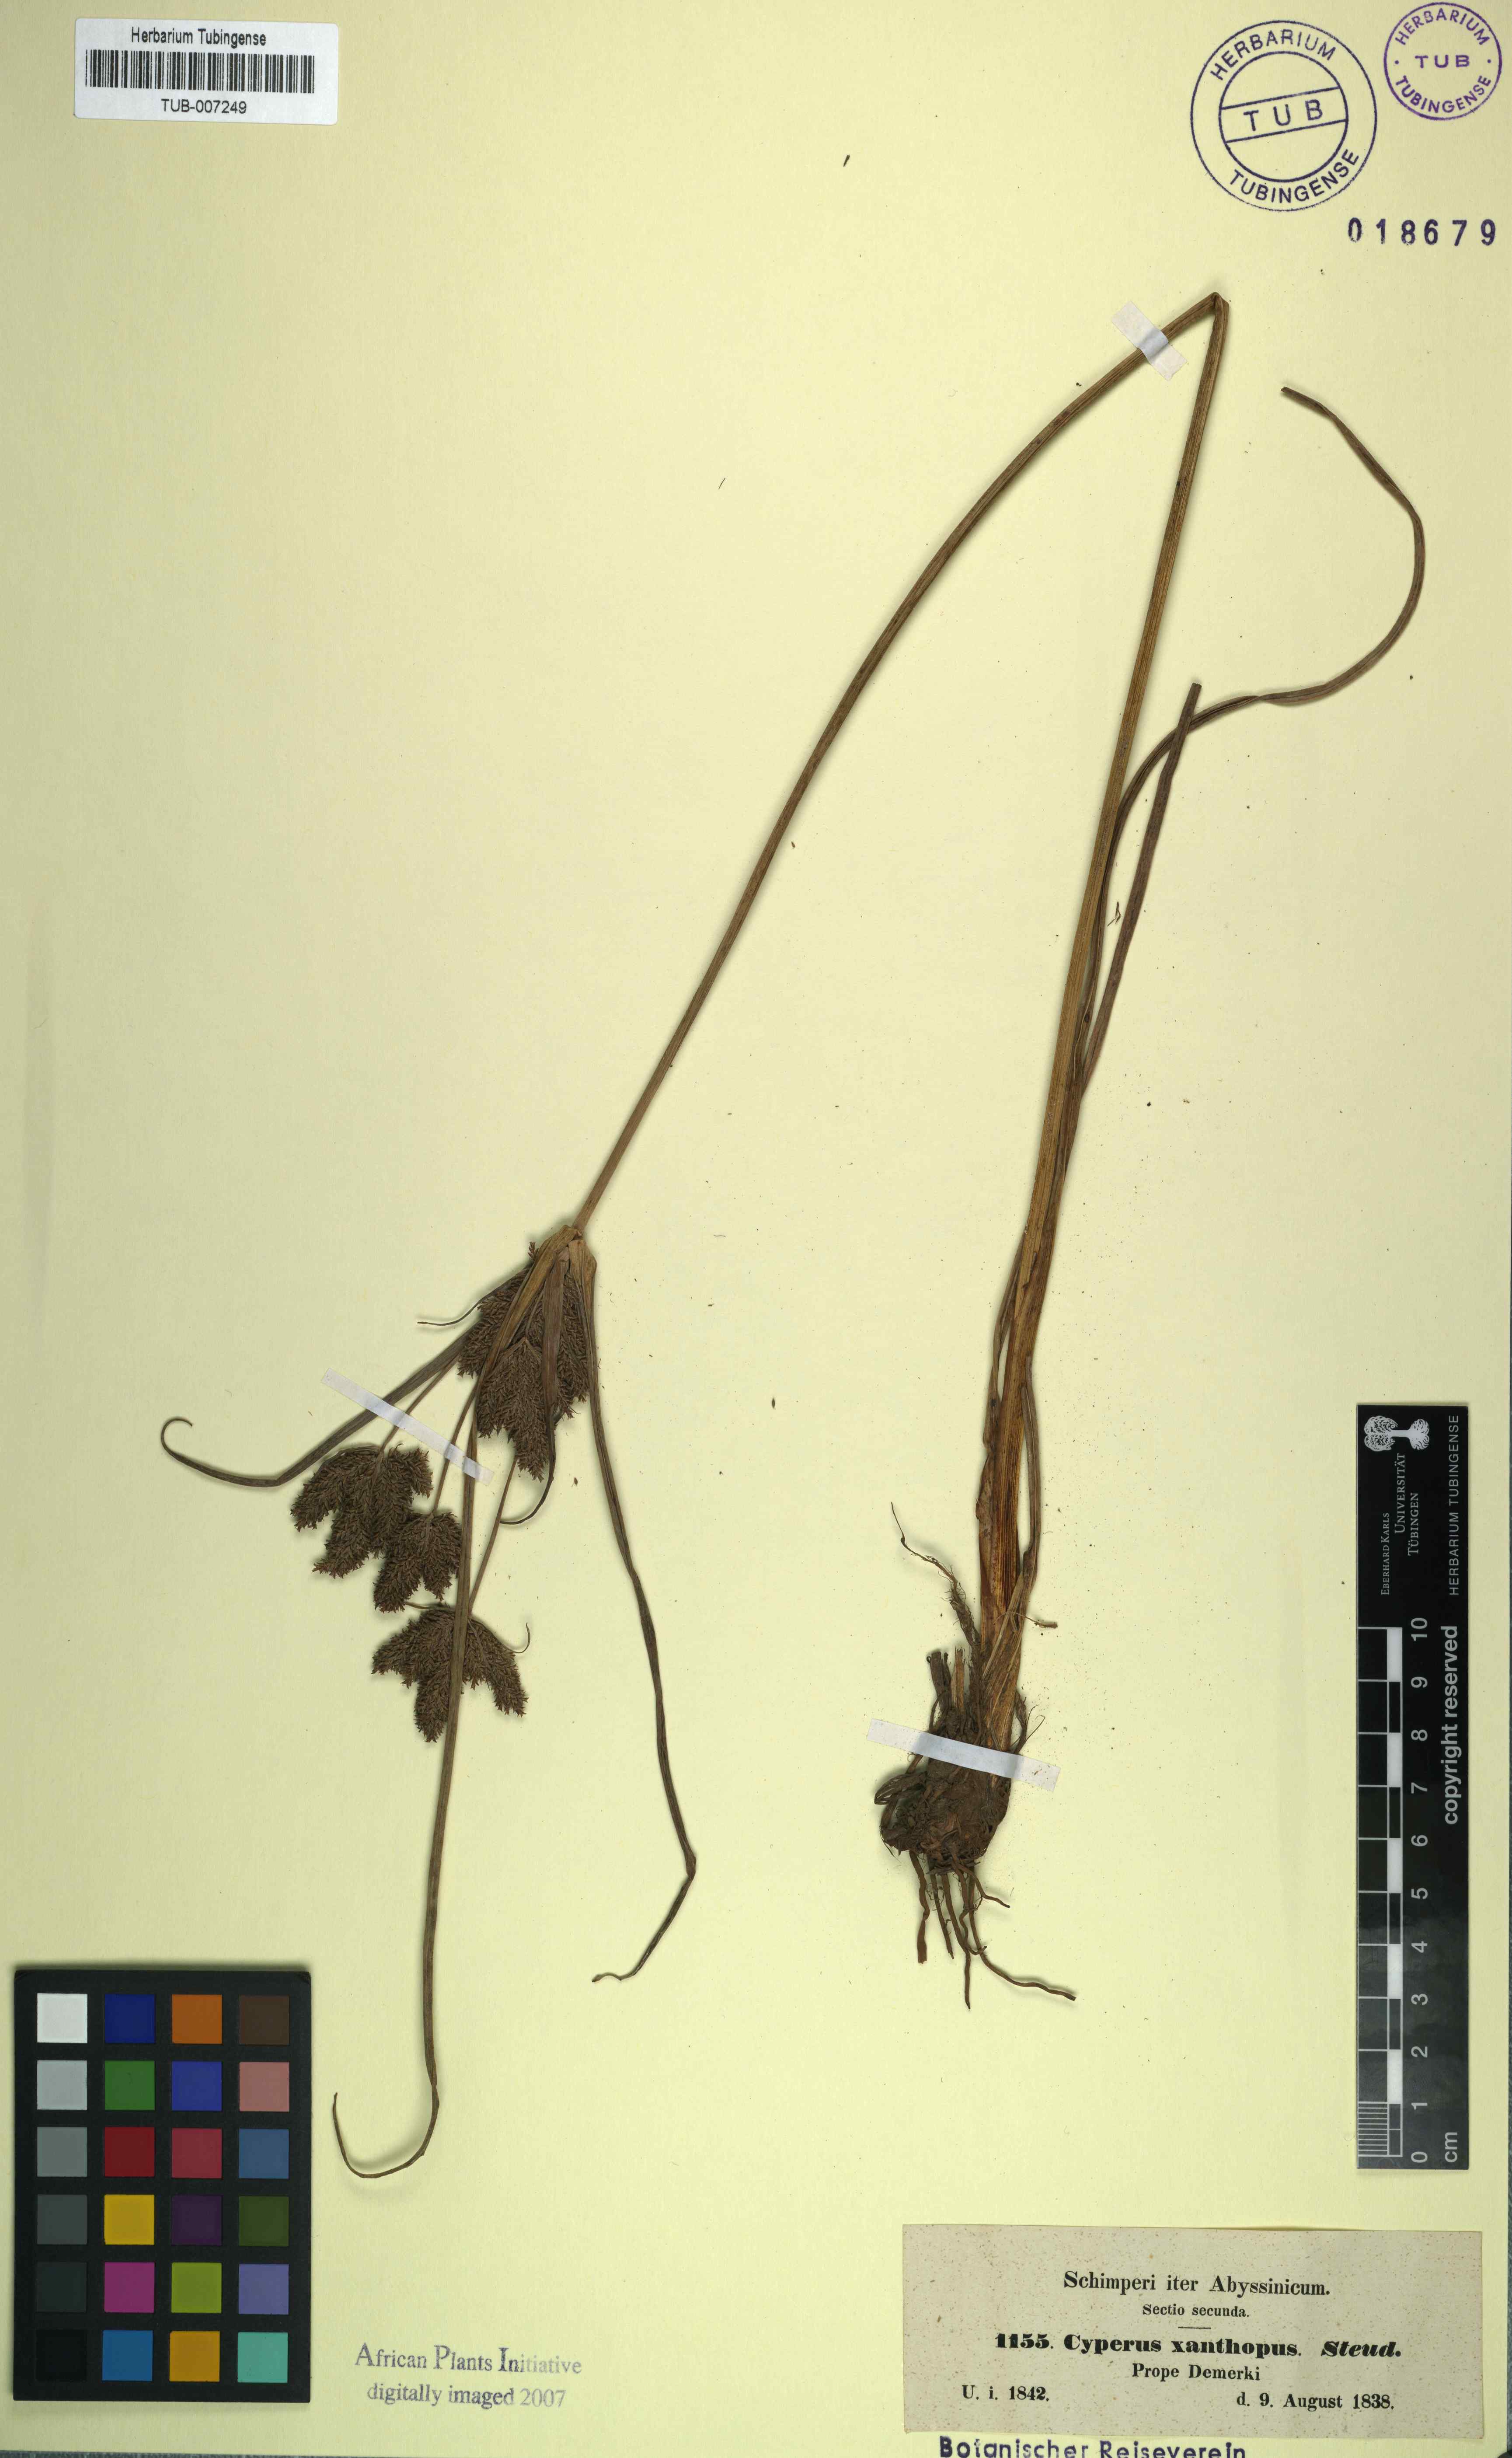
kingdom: Plantae
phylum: Tracheophyta
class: Liliopsida
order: Poales
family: Cyperaceae
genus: Cyperus
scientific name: Cyperus nutans
